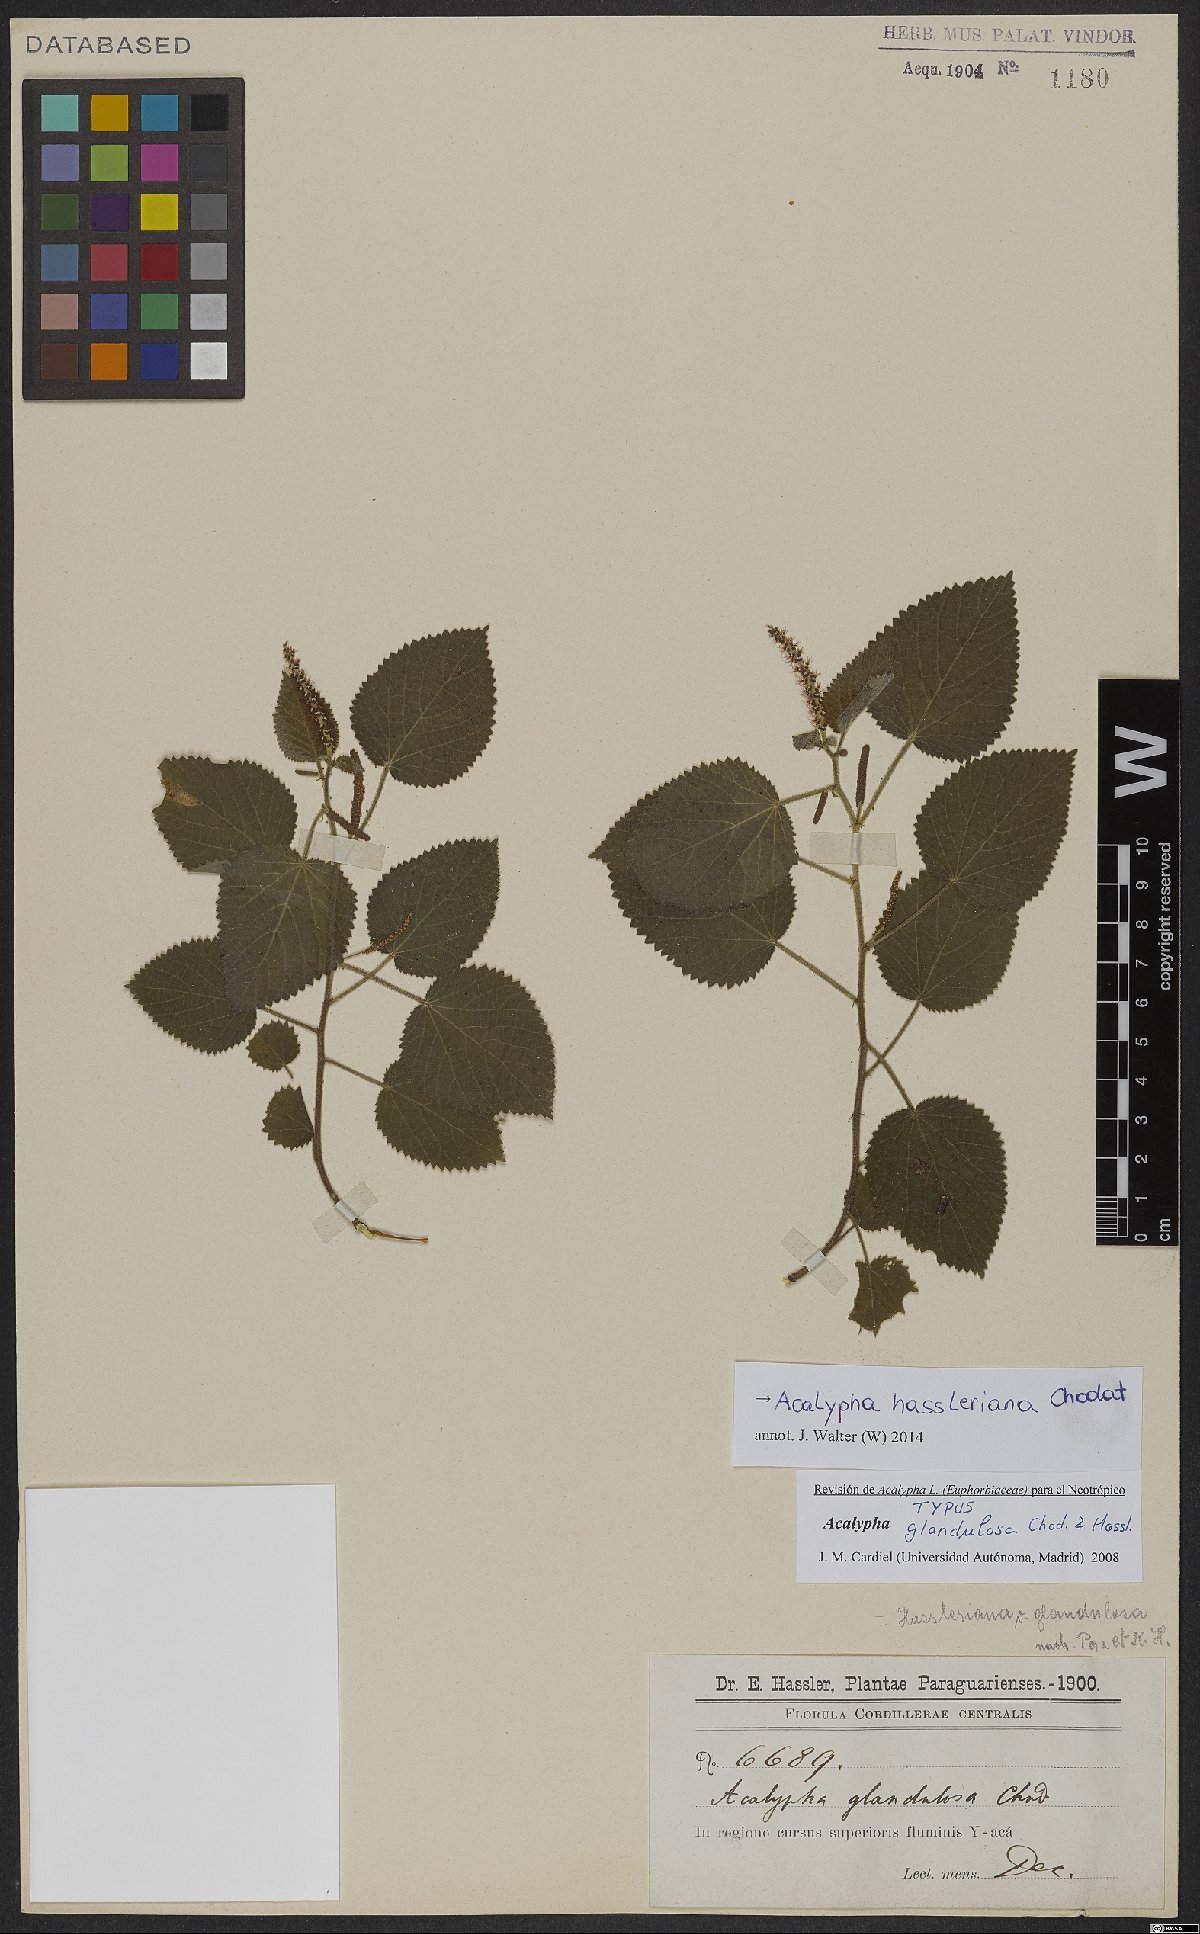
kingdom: Plantae
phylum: Tracheophyta
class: Magnoliopsida
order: Malpighiales
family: Euphorbiaceae
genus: Acalypha
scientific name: Acalypha hassleriana
